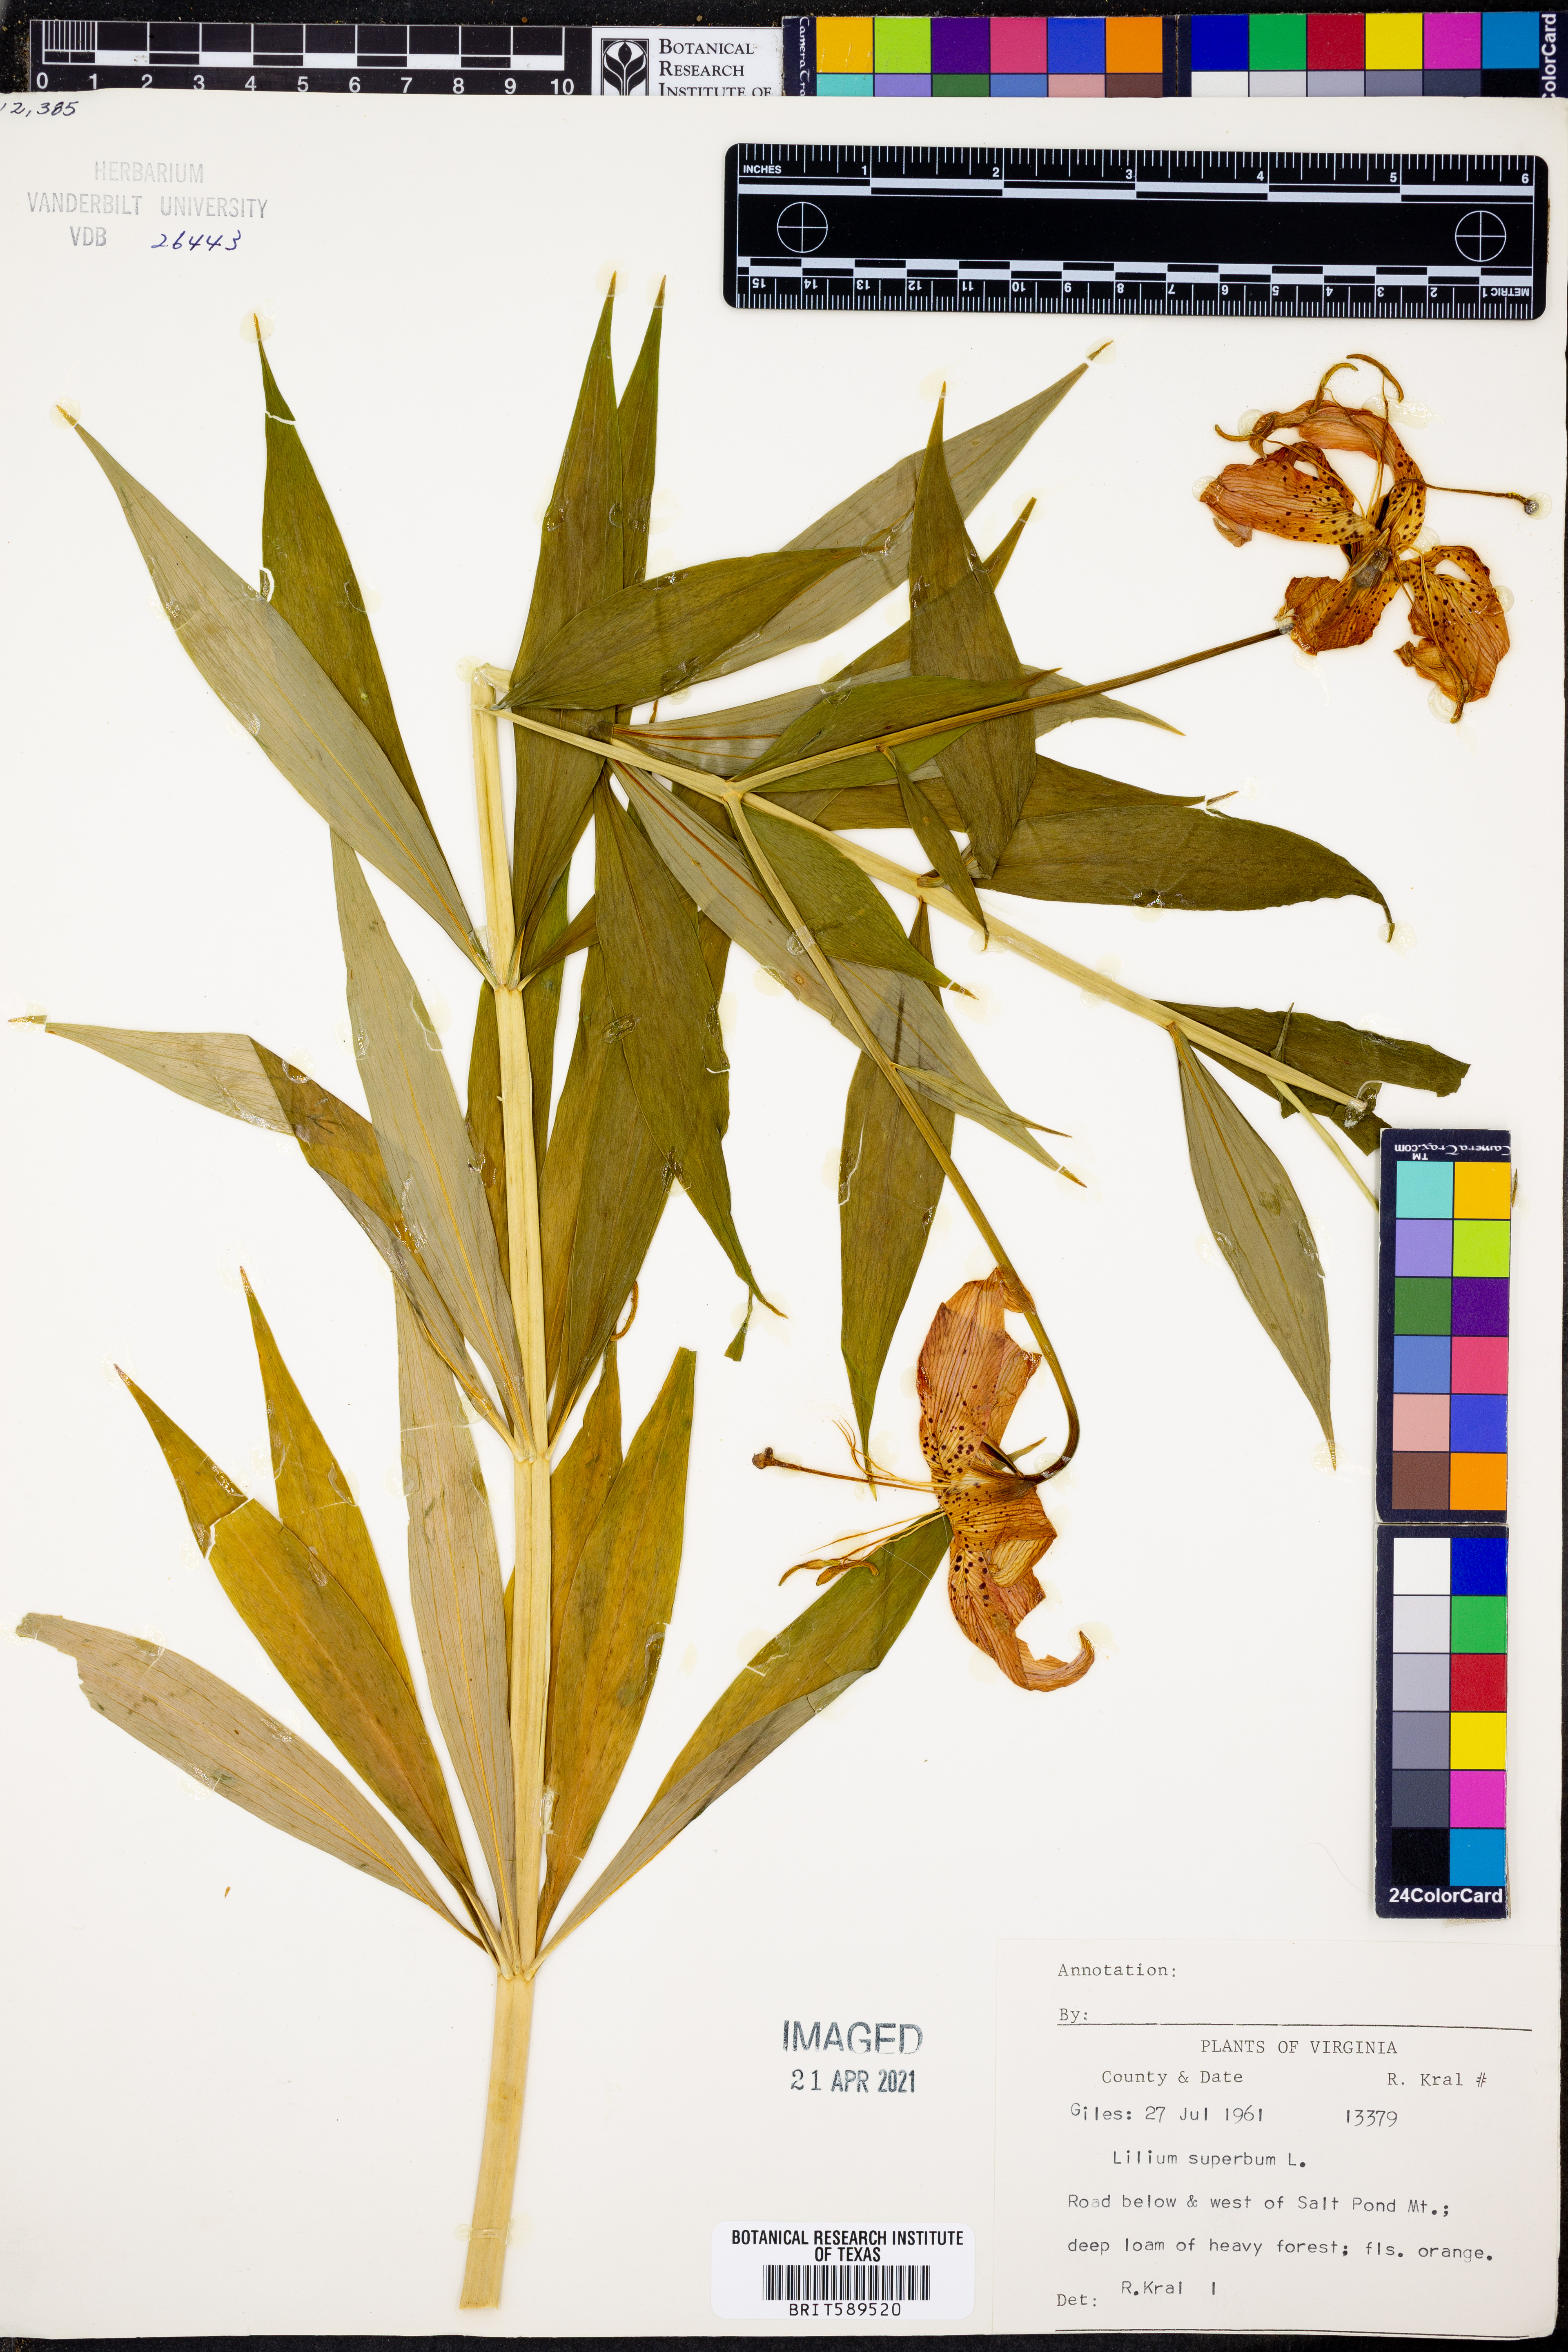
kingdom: Plantae
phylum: Tracheophyta
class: Liliopsida
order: Liliales
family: Liliaceae
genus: Lilium
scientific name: Lilium superbum
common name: American turk's-cap lily
